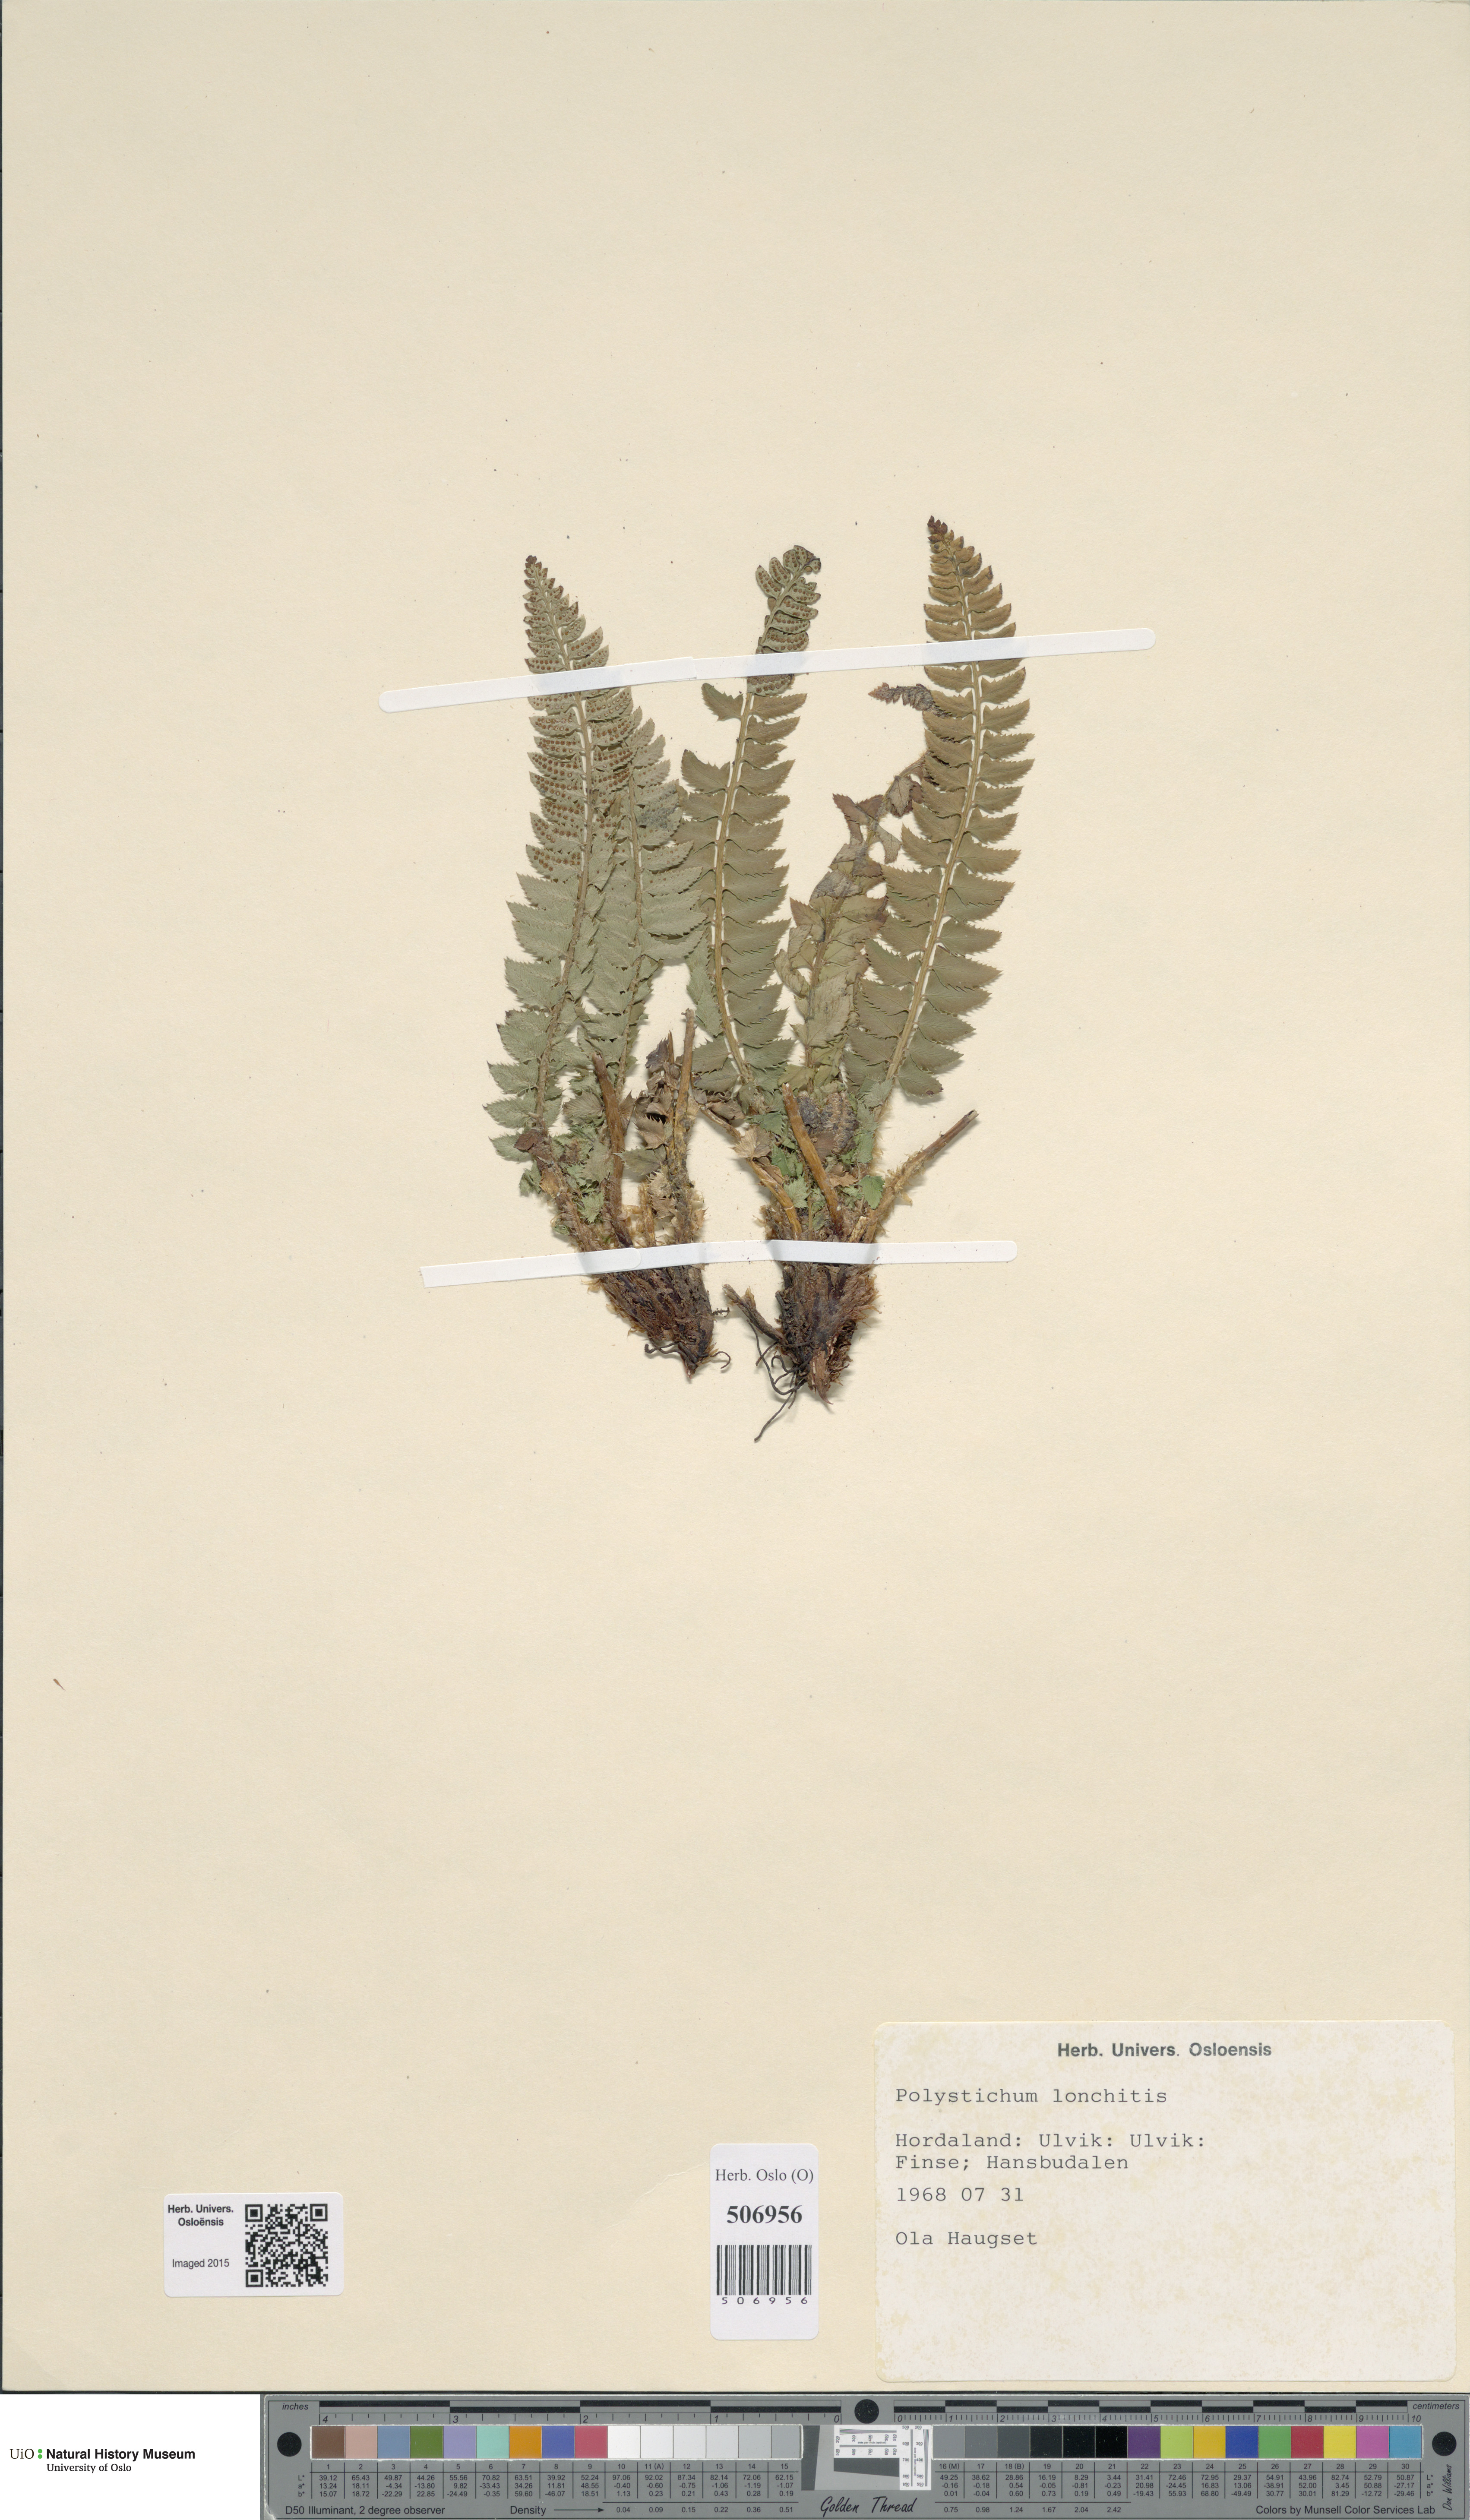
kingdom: Plantae
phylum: Tracheophyta
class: Polypodiopsida
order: Polypodiales
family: Dryopteridaceae
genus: Polystichum
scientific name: Polystichum lonchitis
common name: Holly fern
